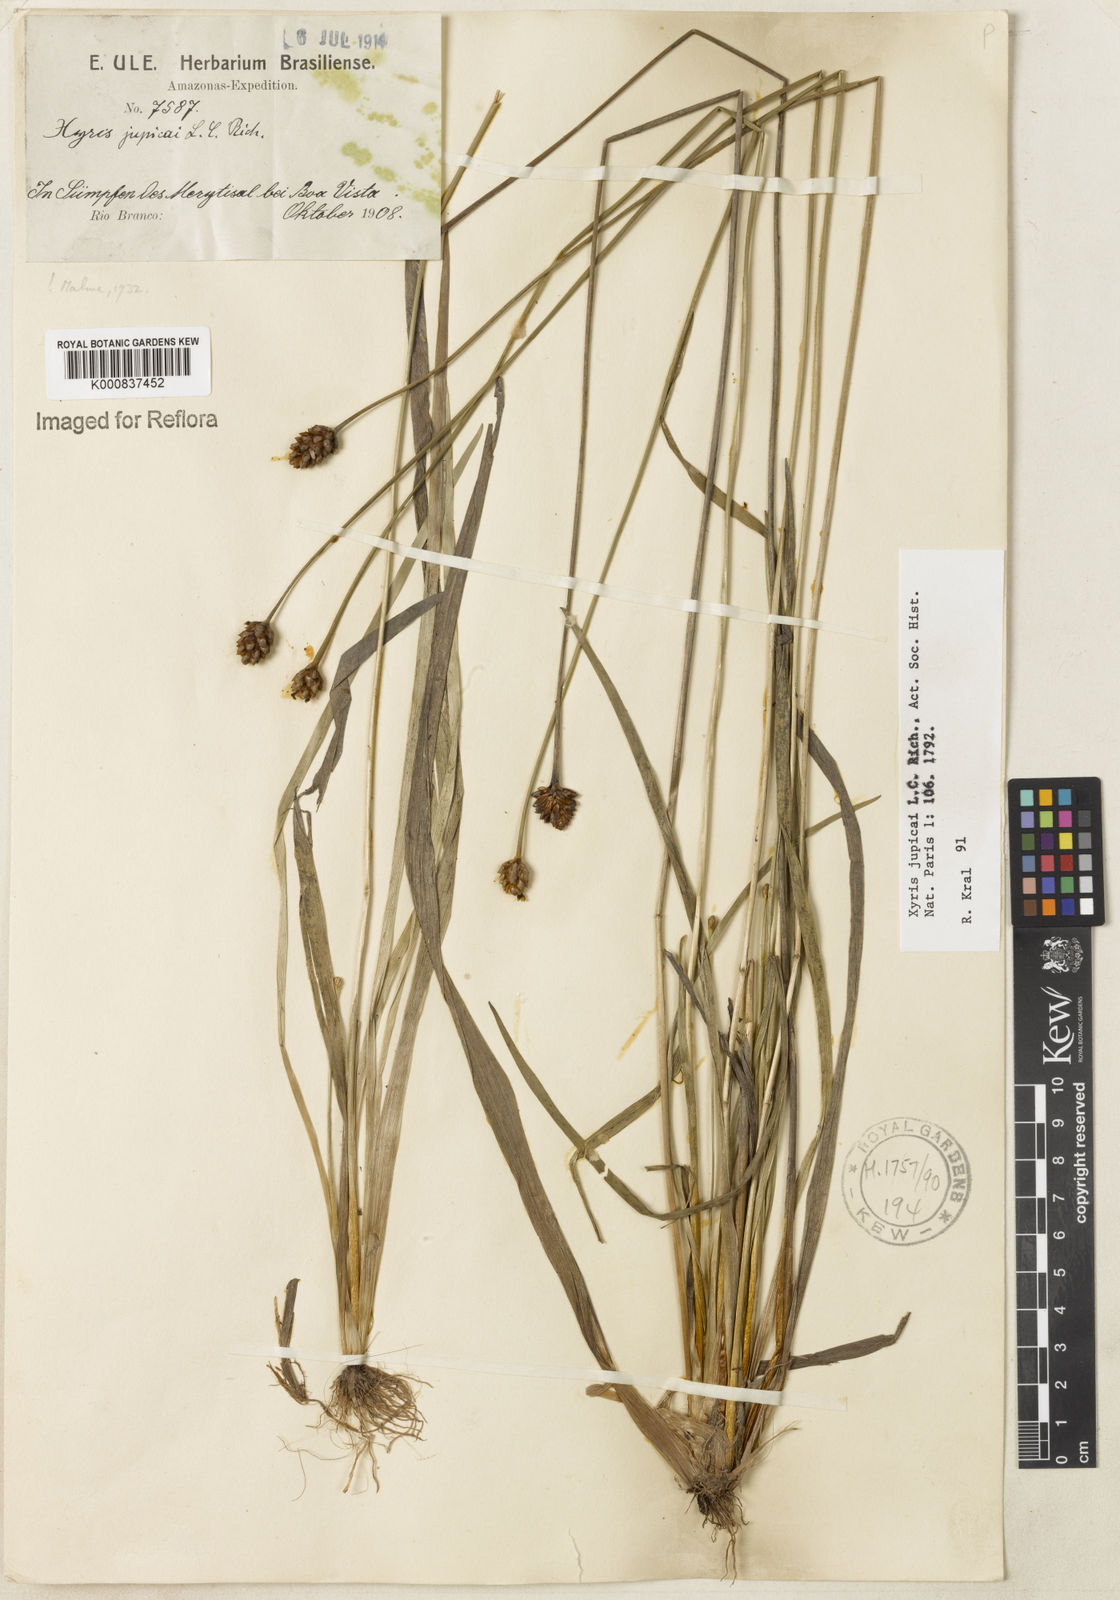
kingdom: Plantae
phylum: Tracheophyta
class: Liliopsida
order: Poales
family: Xyridaceae
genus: Xyris
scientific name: Xyris jupicai
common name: Richard's yelloweyed grass
